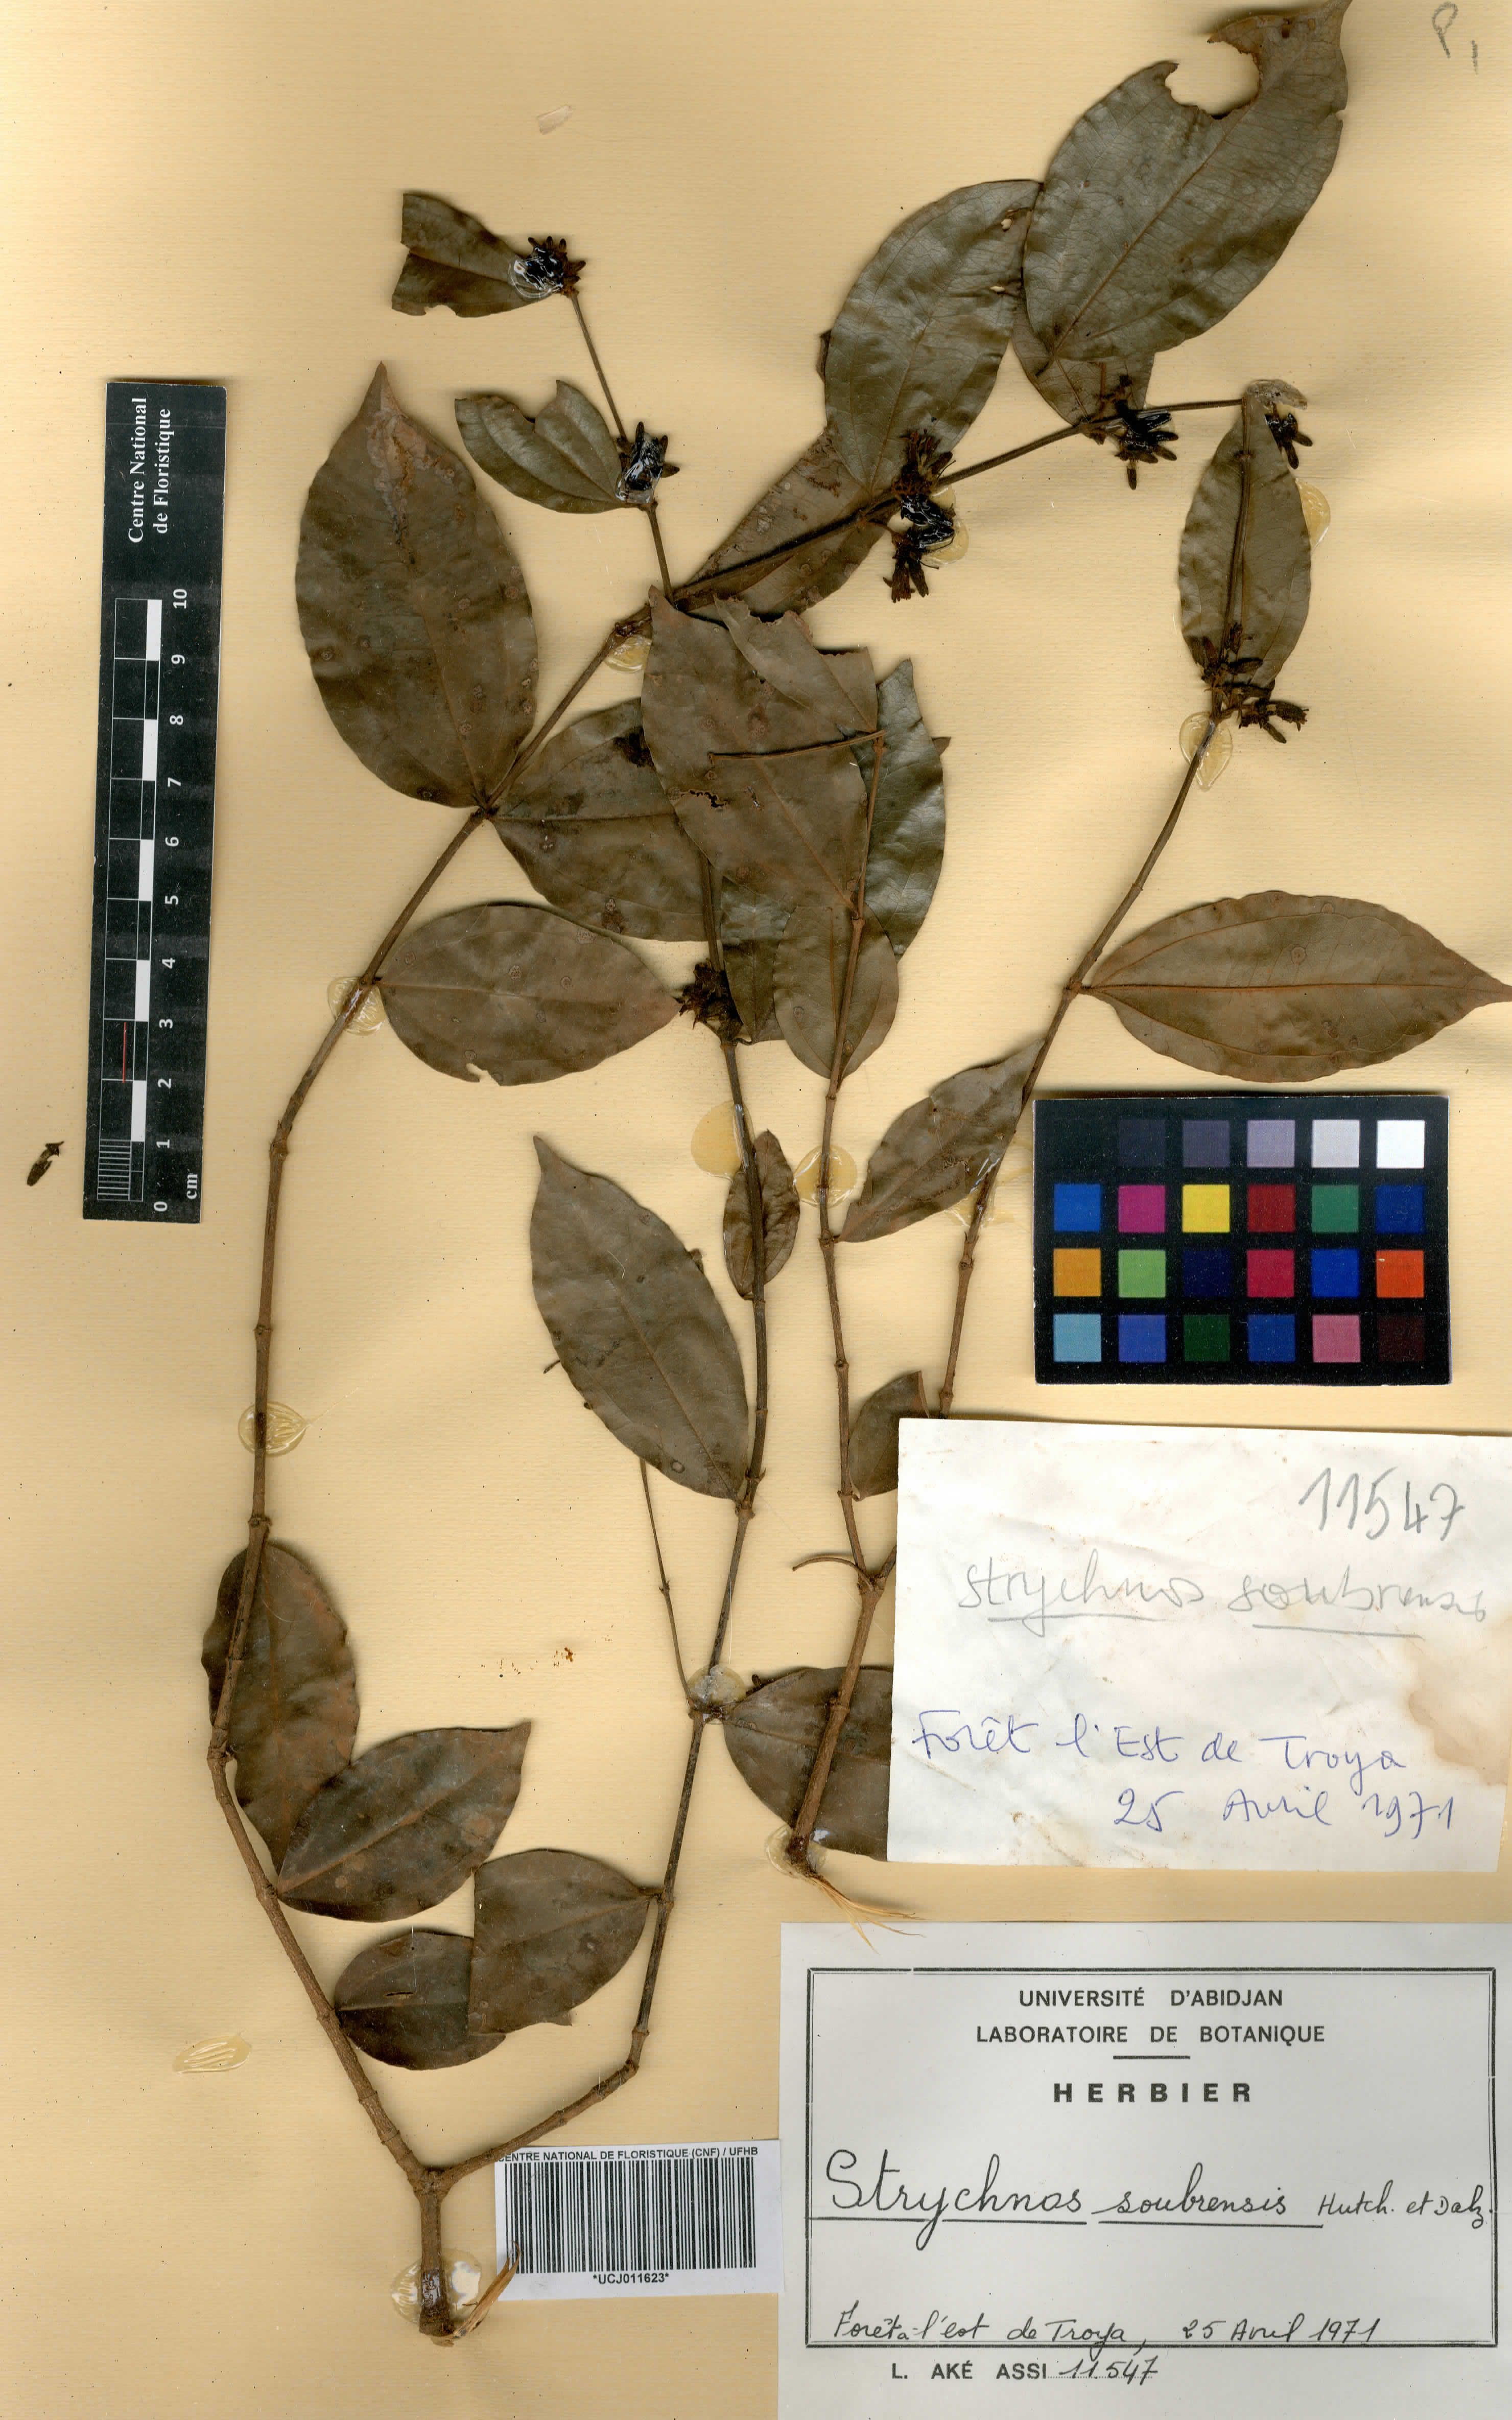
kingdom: Plantae
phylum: Tracheophyta
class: Magnoliopsida
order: Gentianales
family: Loganiaceae
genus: Strychnos
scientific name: Strychnos soubrensis
